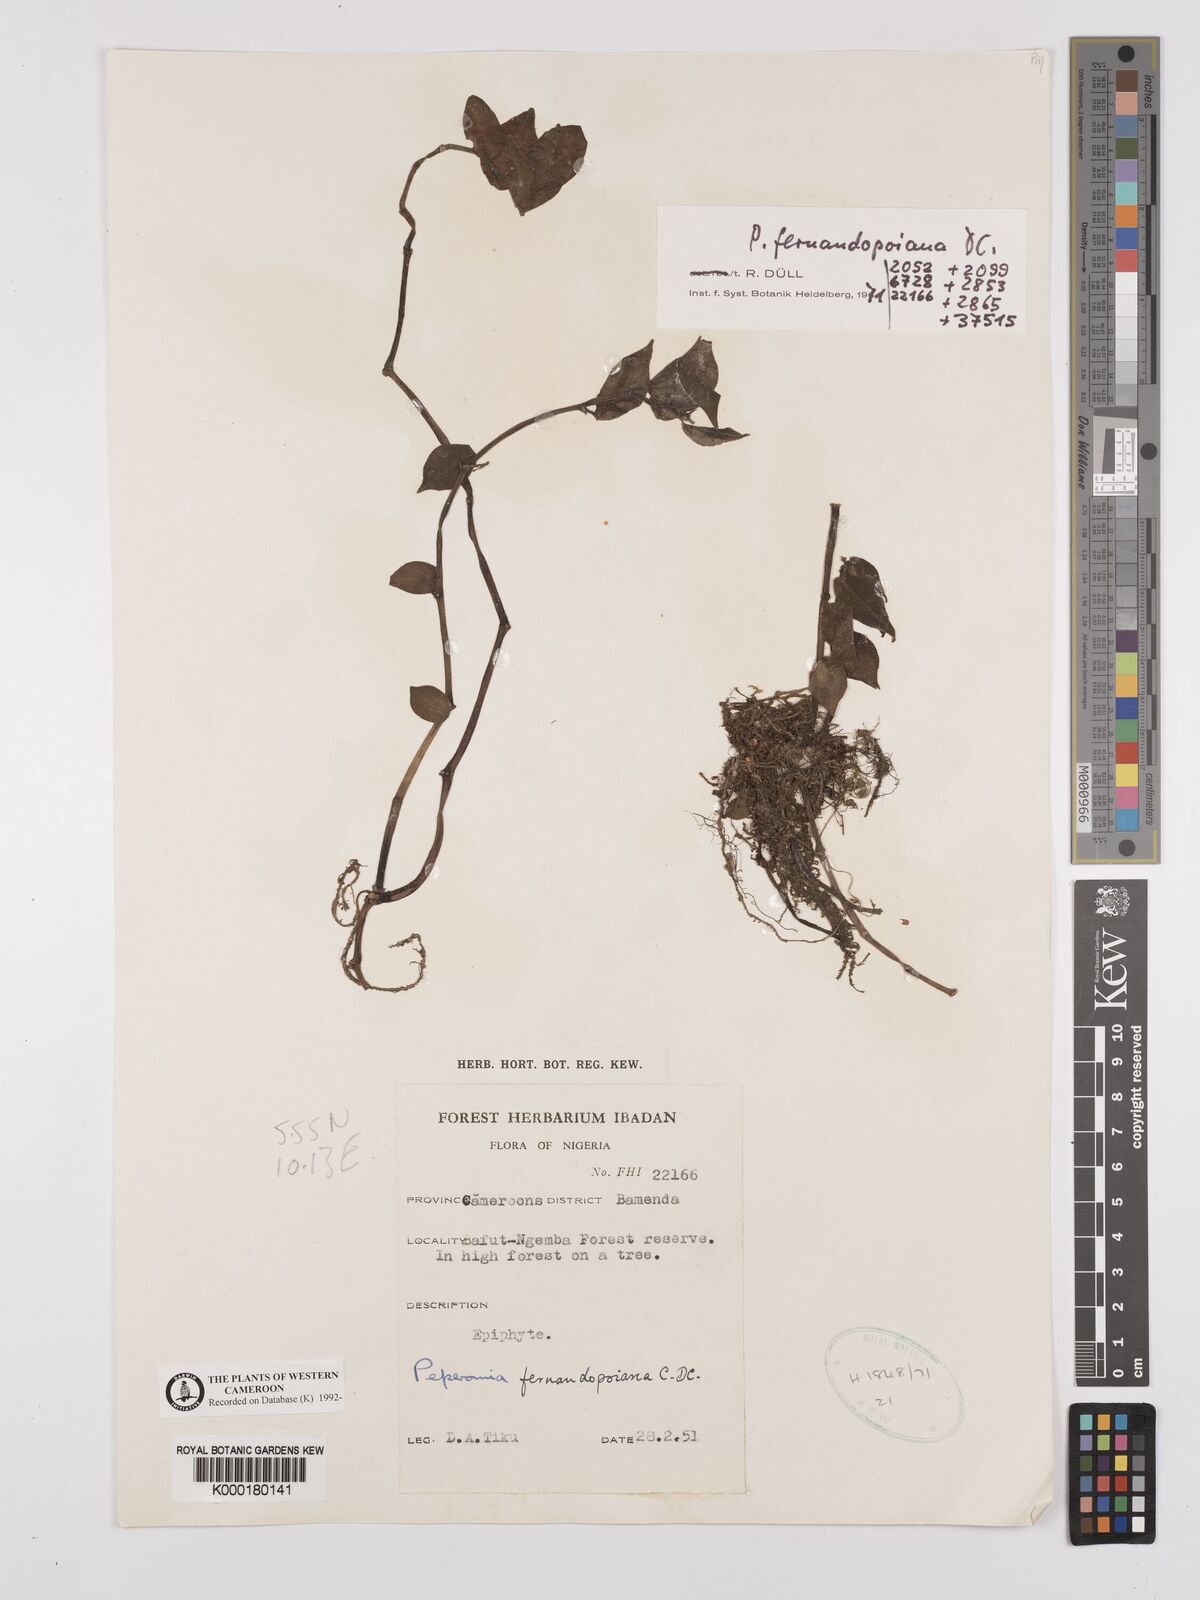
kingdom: Plantae
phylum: Tracheophyta
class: Magnoliopsida
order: Piperales
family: Piperaceae
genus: Peperomia
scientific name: Peperomia fernandopoiana
